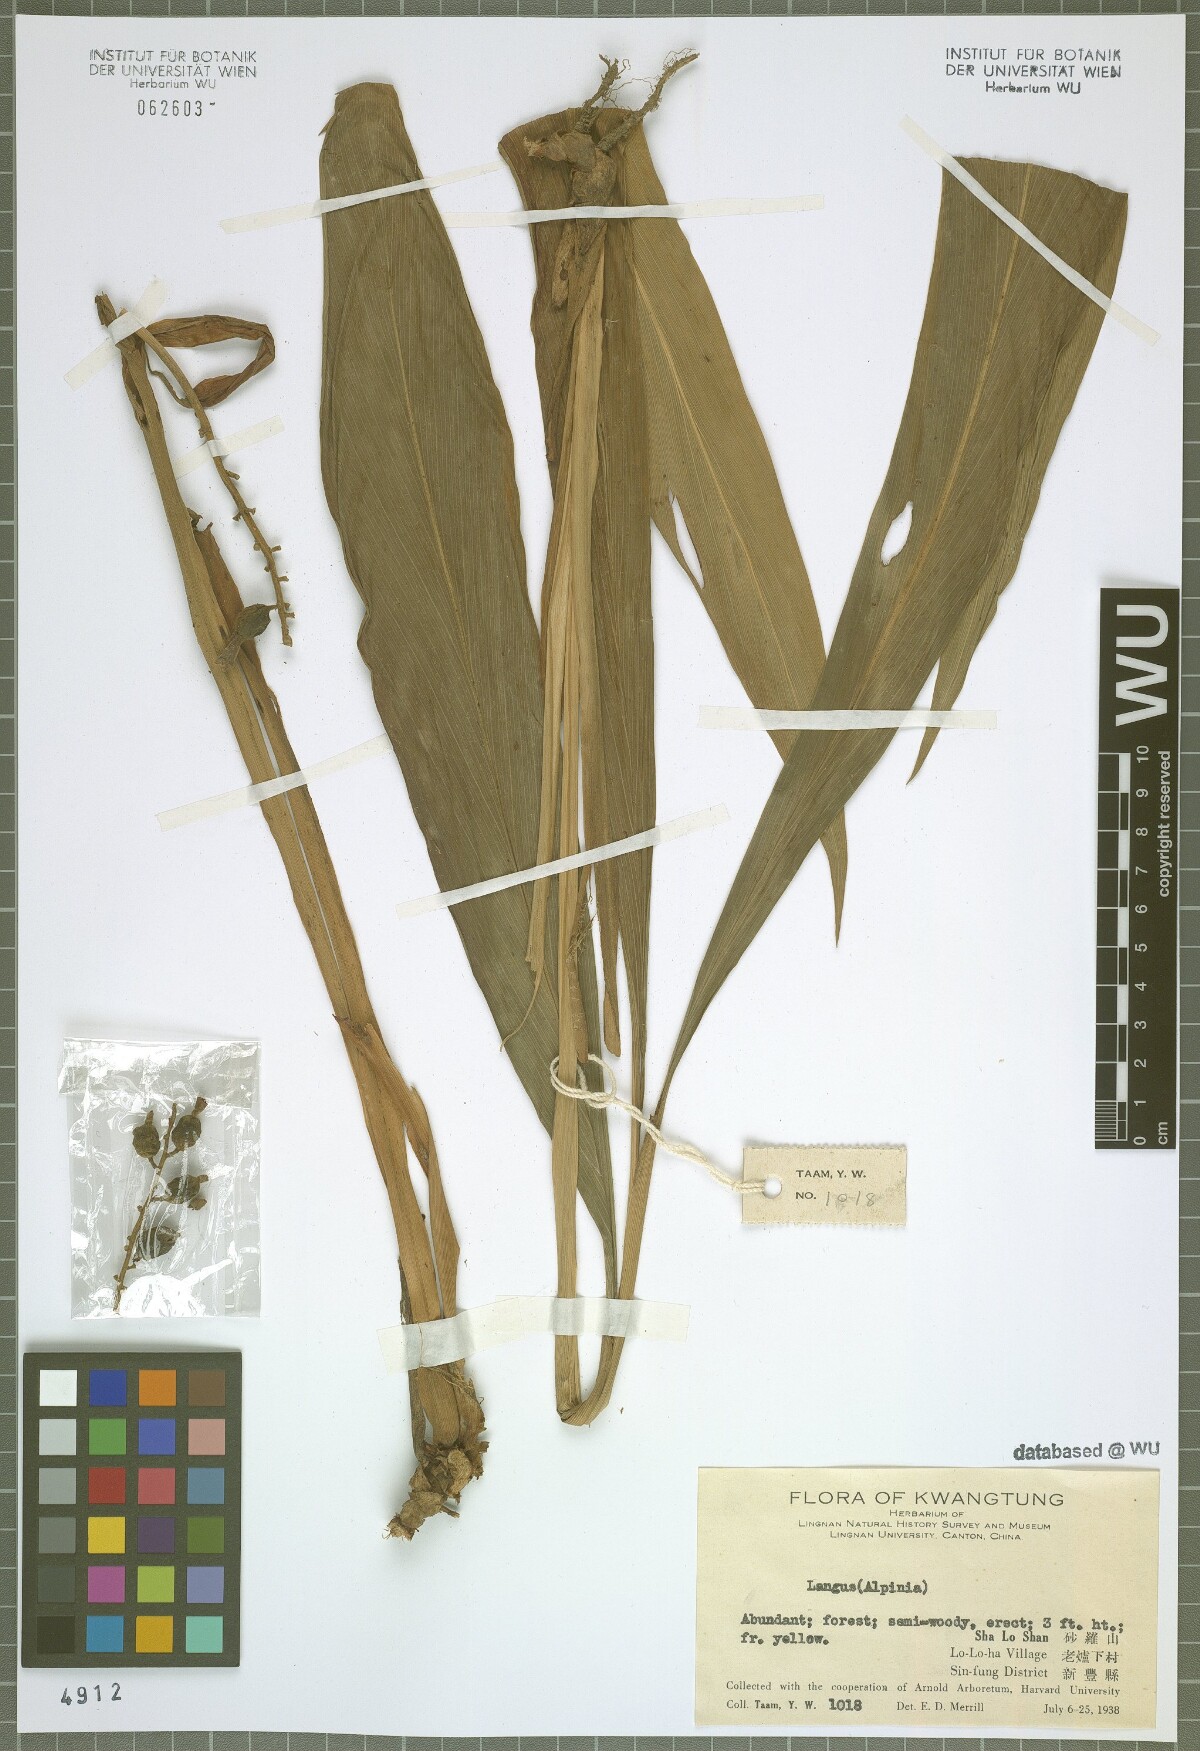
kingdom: Plantae
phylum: Tracheophyta
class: Liliopsida
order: Zingiberales
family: Zingiberaceae
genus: Alpinia
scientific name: Alpinia japonica
